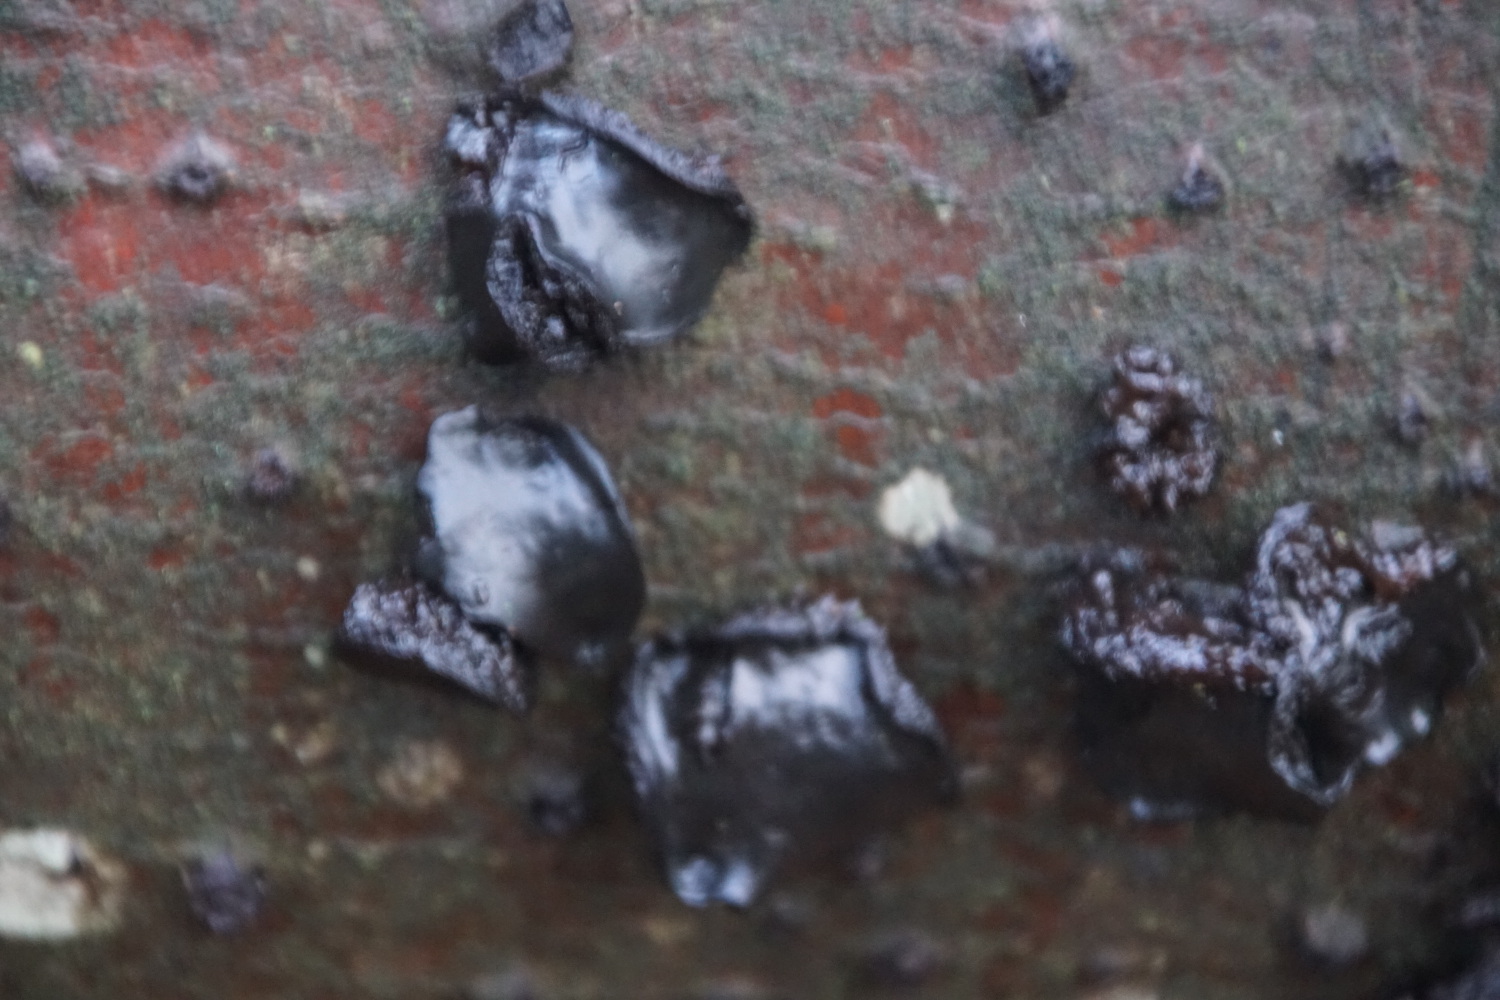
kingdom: Fungi
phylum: Ascomycota
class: Leotiomycetes
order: Phacidiales
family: Phacidiaceae
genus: Bulgaria
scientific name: Bulgaria inquinans
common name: afsmittende topsvamp
